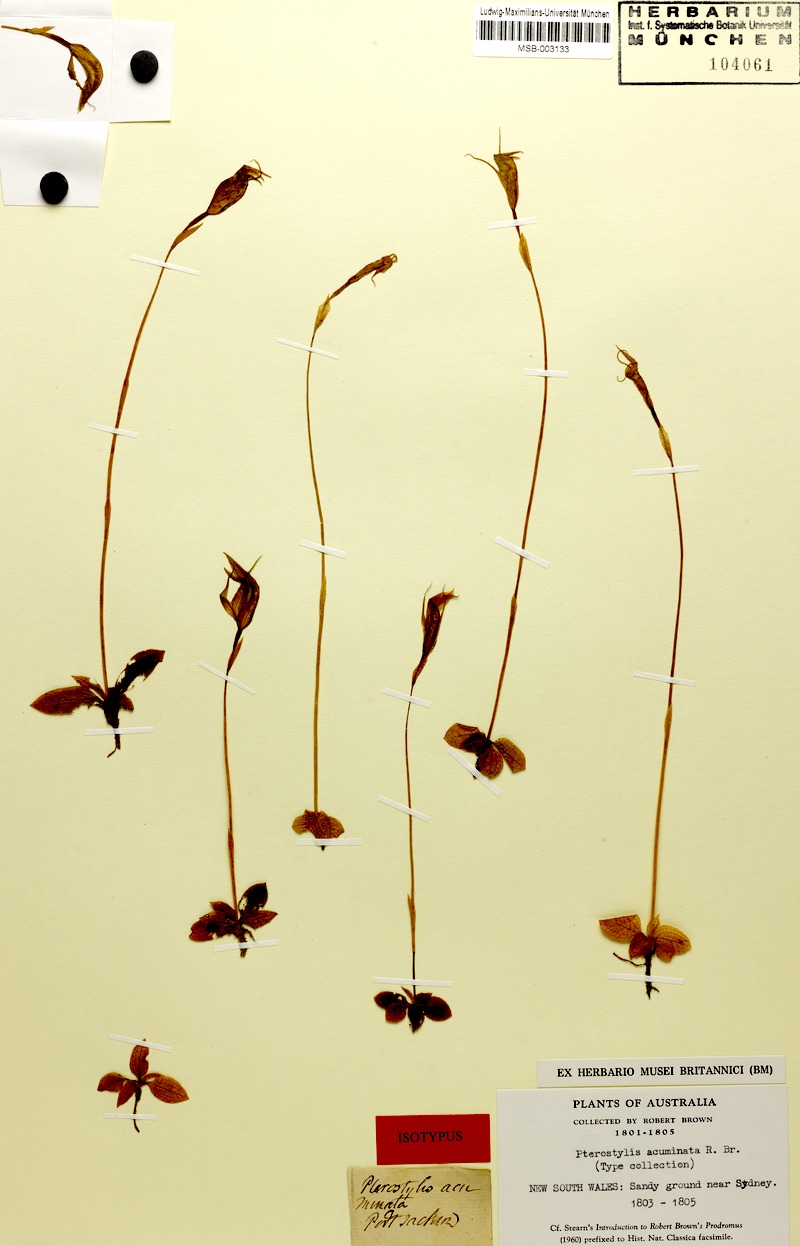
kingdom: Plantae
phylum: Tracheophyta
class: Liliopsida
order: Asparagales
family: Orchidaceae
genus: Pterostylis
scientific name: Pterostylis acuminata
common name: Pointed greenhood
